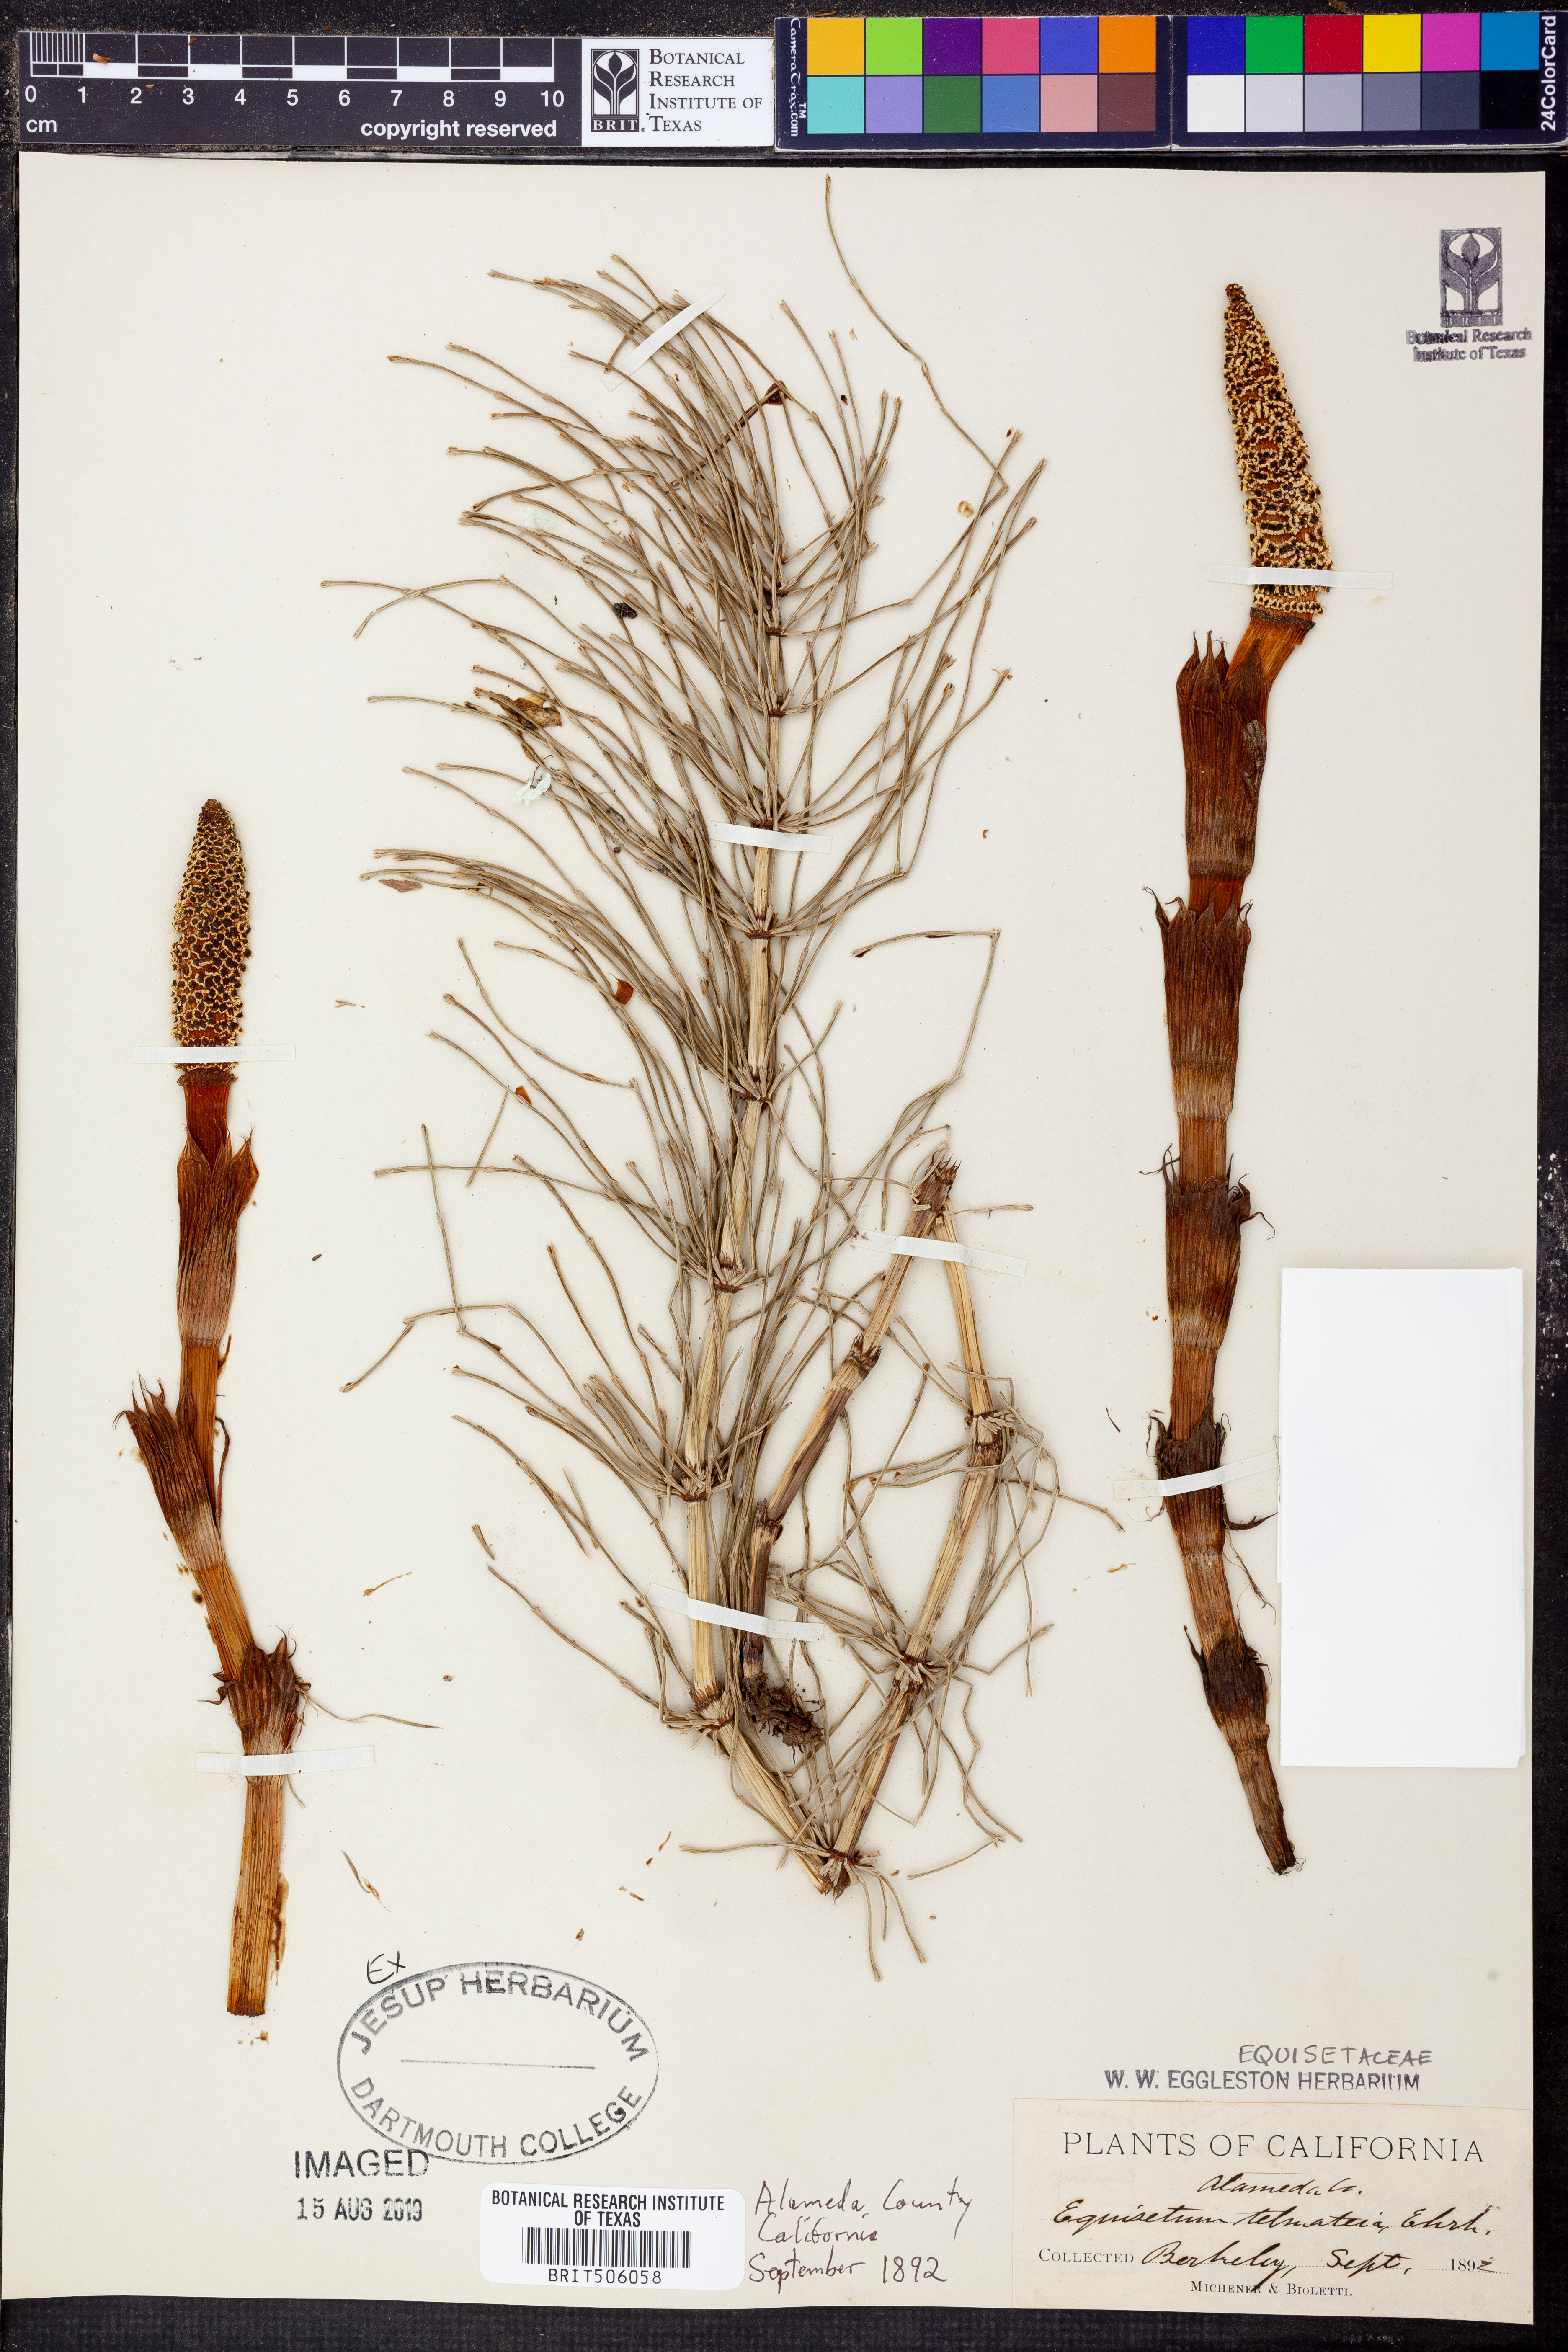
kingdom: Plantae
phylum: Tracheophyta
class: Polypodiopsida
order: Equisetales
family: Equisetaceae
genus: Equisetum
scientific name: Equisetum telmateia
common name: Great horsetail
